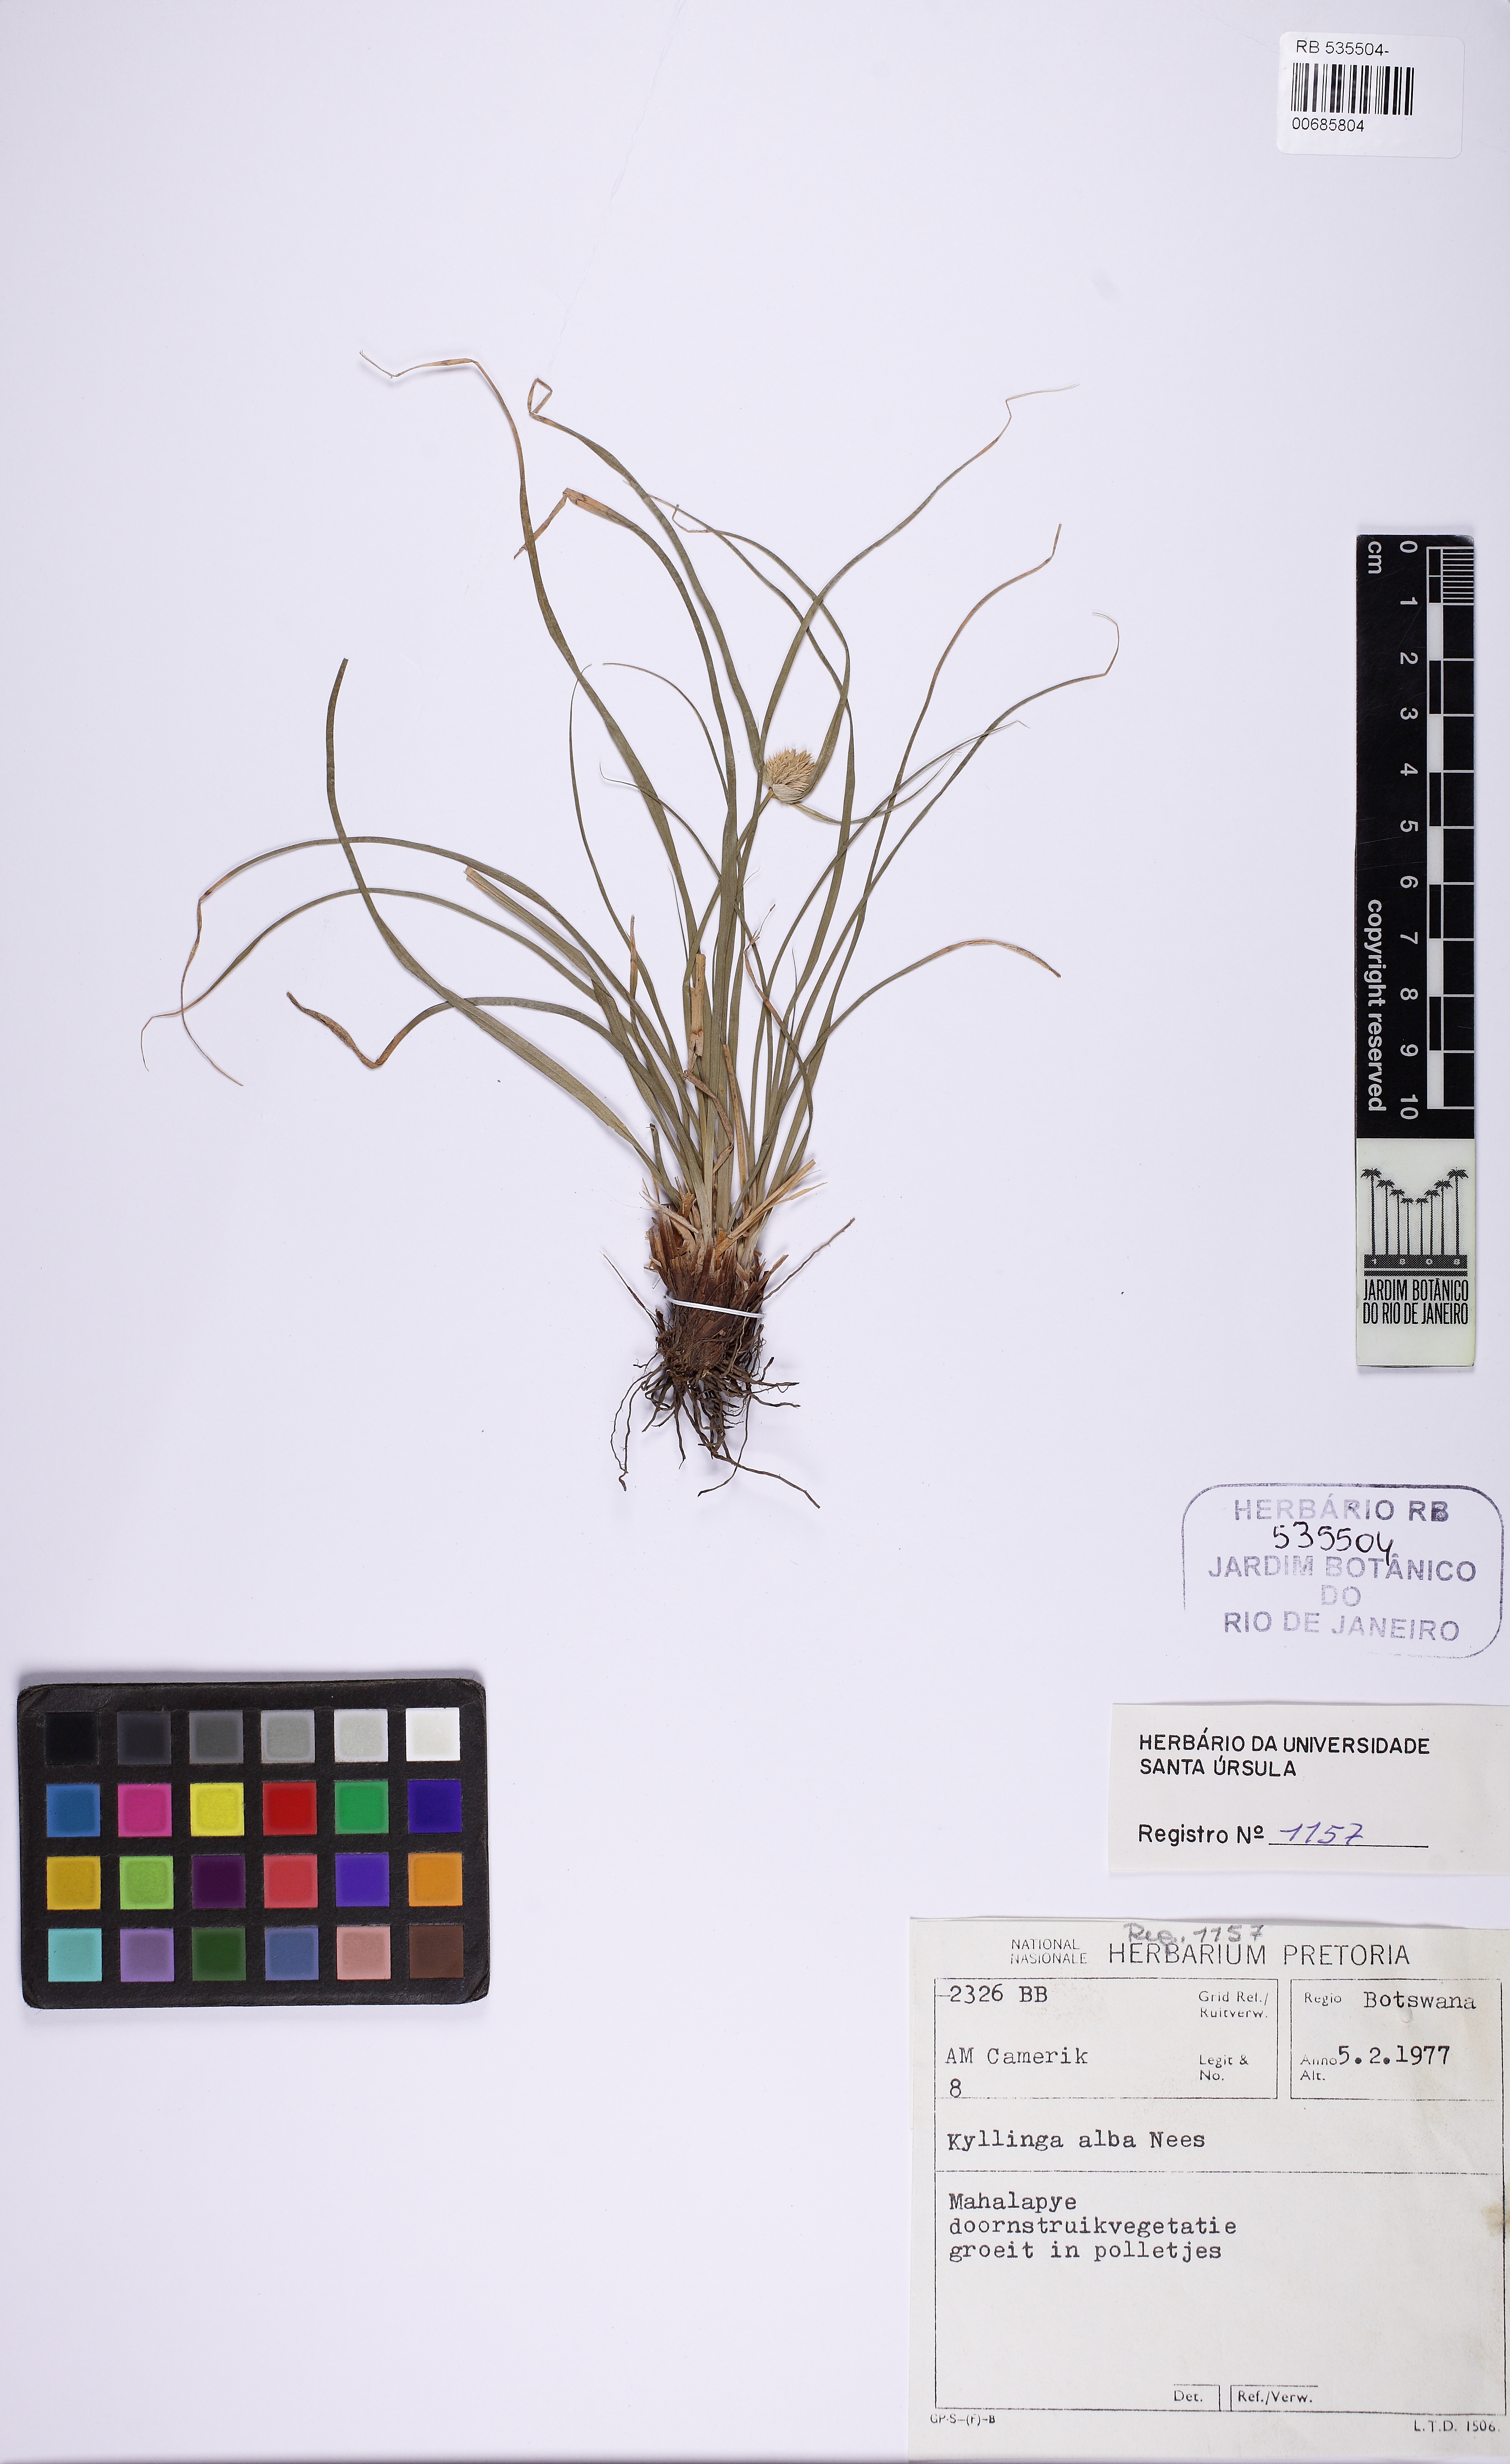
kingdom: Plantae
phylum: Tracheophyta
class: Liliopsida
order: Poales
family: Cyperaceae
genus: Cyperus
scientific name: Cyperus
